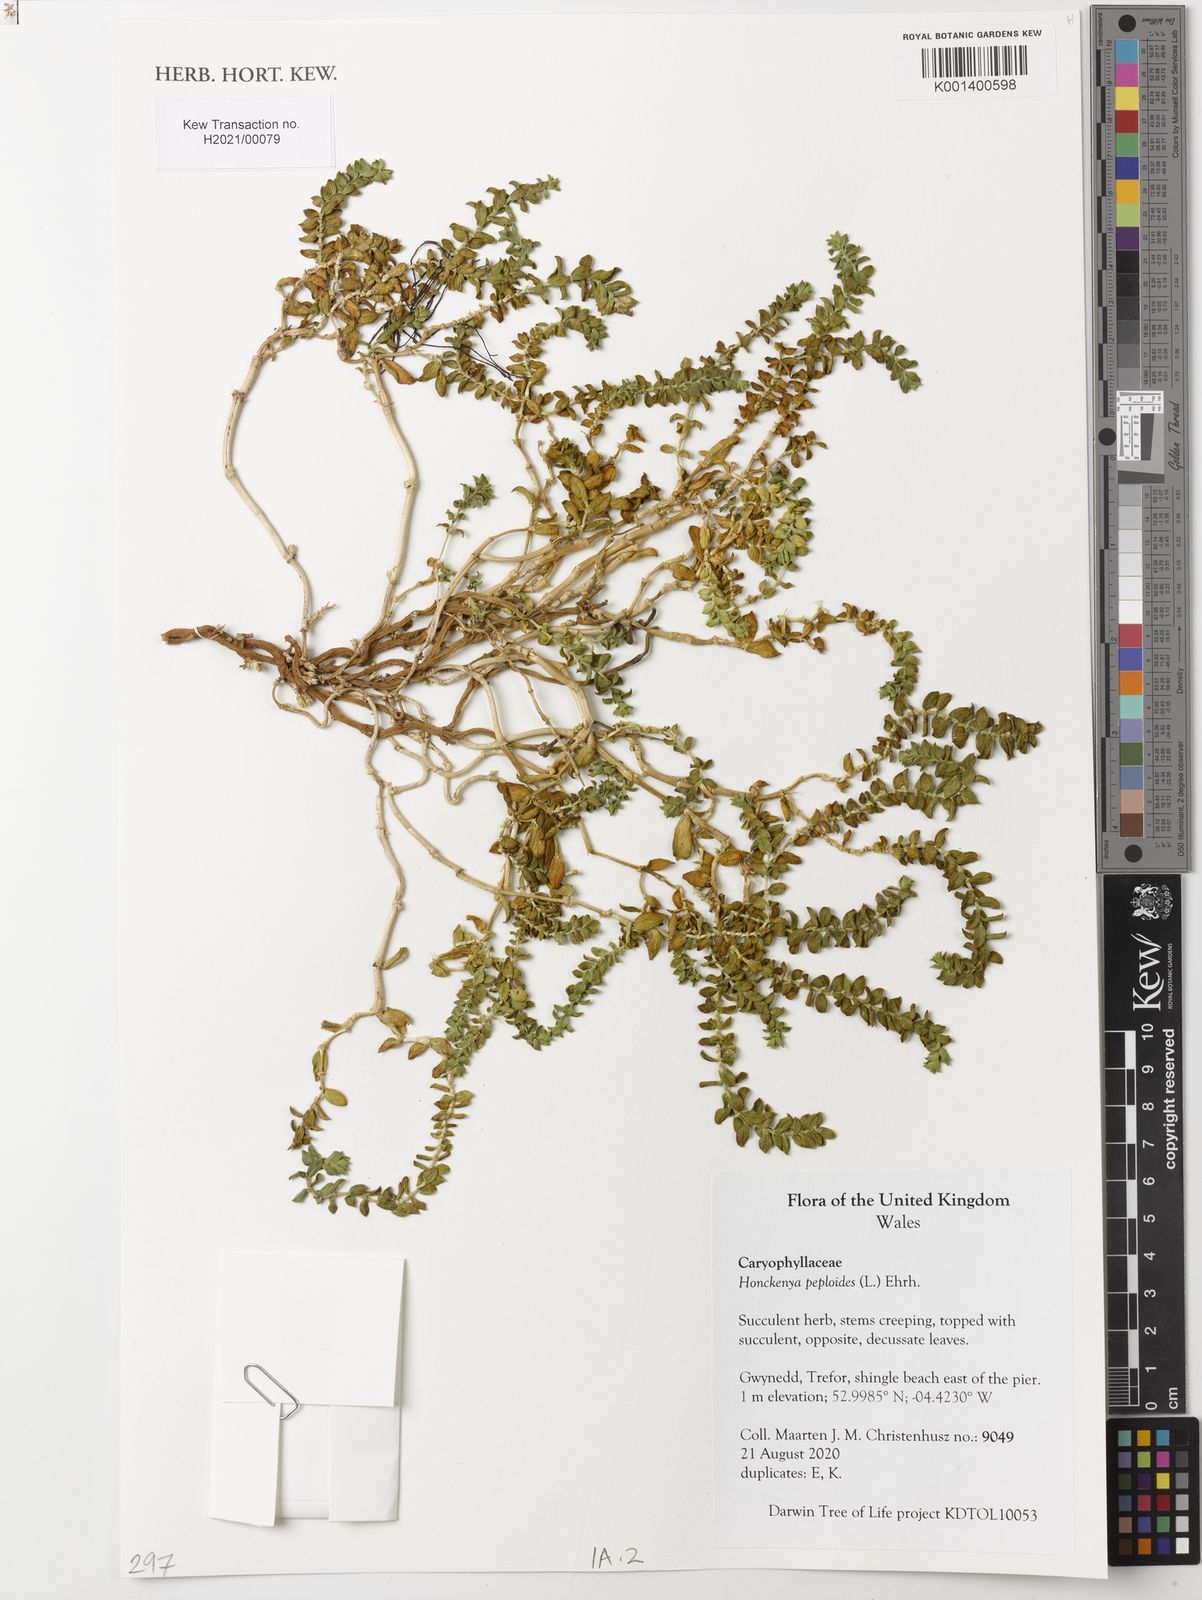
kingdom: Plantae
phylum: Tracheophyta
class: Magnoliopsida
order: Caryophyllales
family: Caryophyllaceae
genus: Honckenya
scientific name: Honckenya peploides
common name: Sea sandwort
